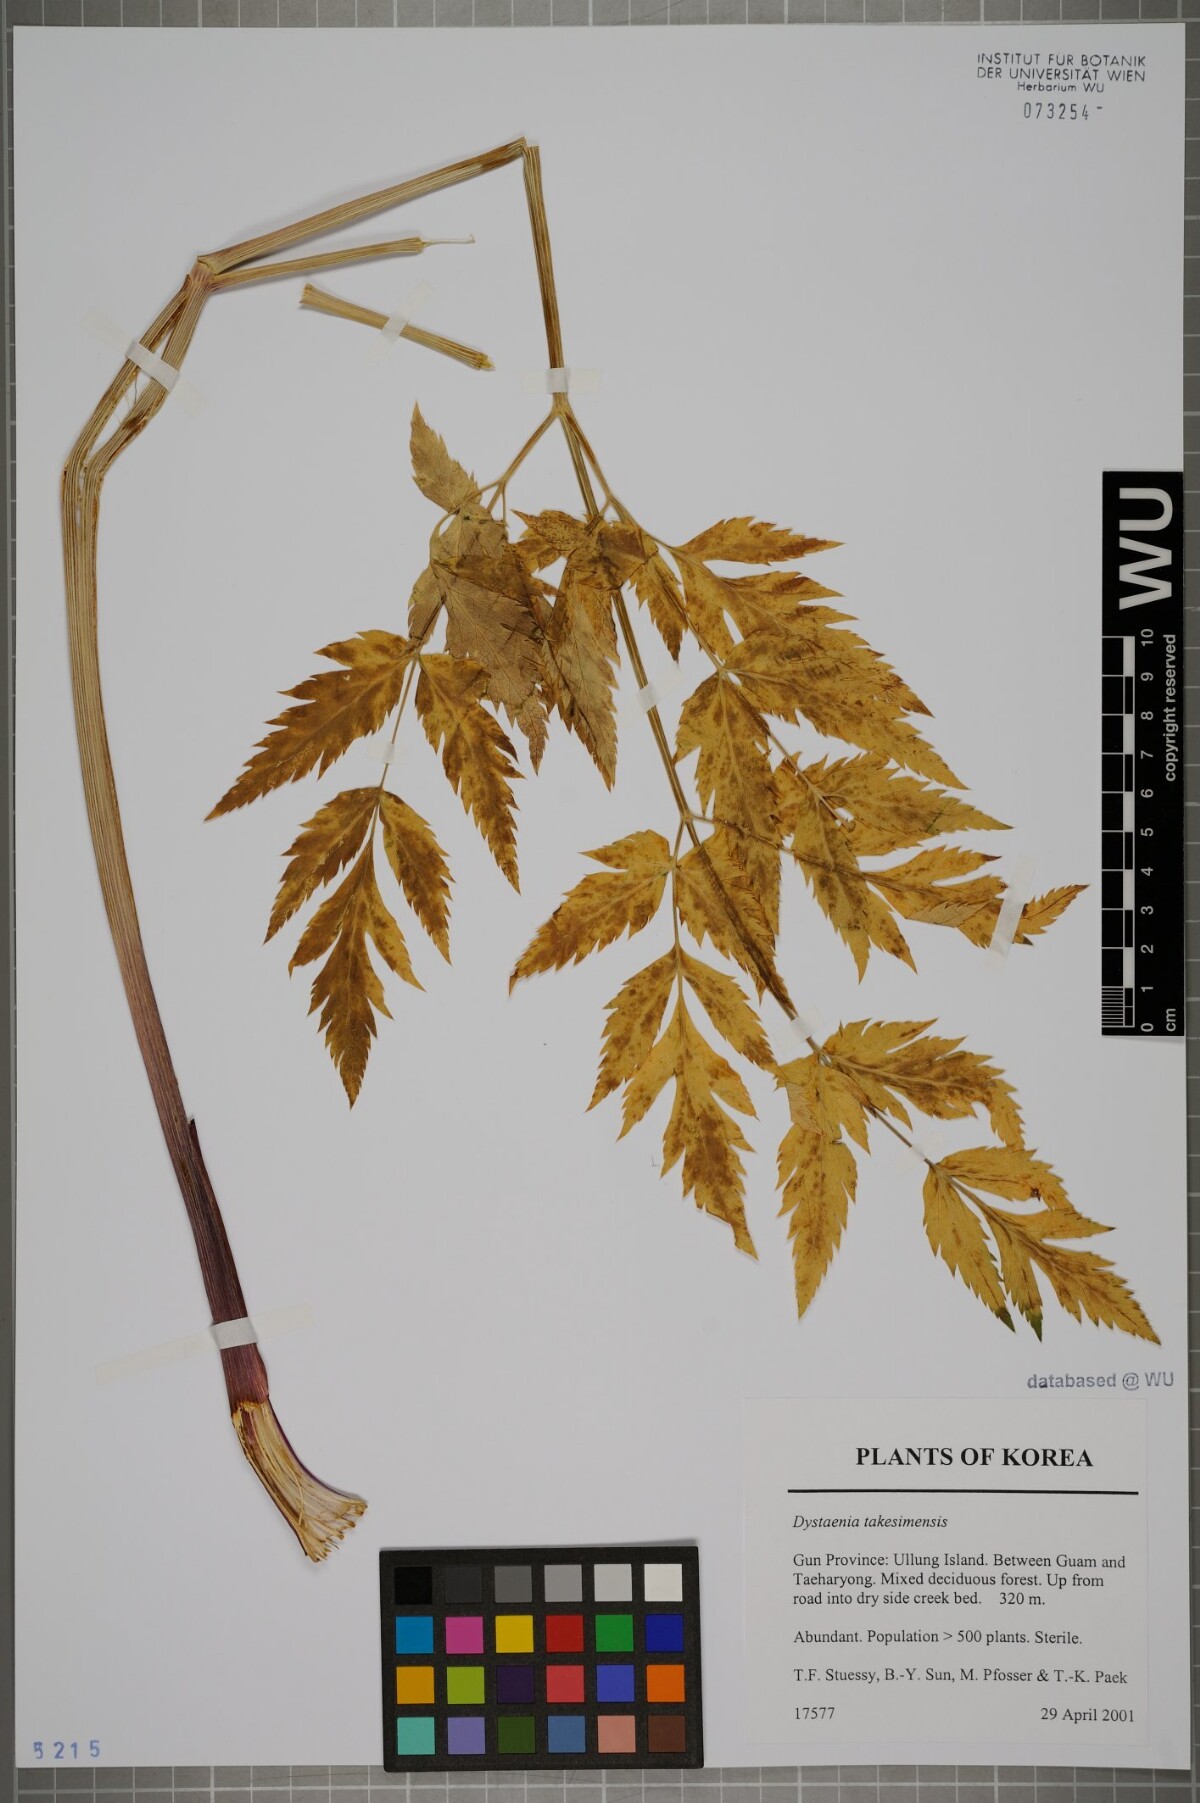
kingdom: Plantae
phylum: Tracheophyta
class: Magnoliopsida
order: Apiales
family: Apiaceae
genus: Dystaenia
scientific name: Dystaenia takeshimana
